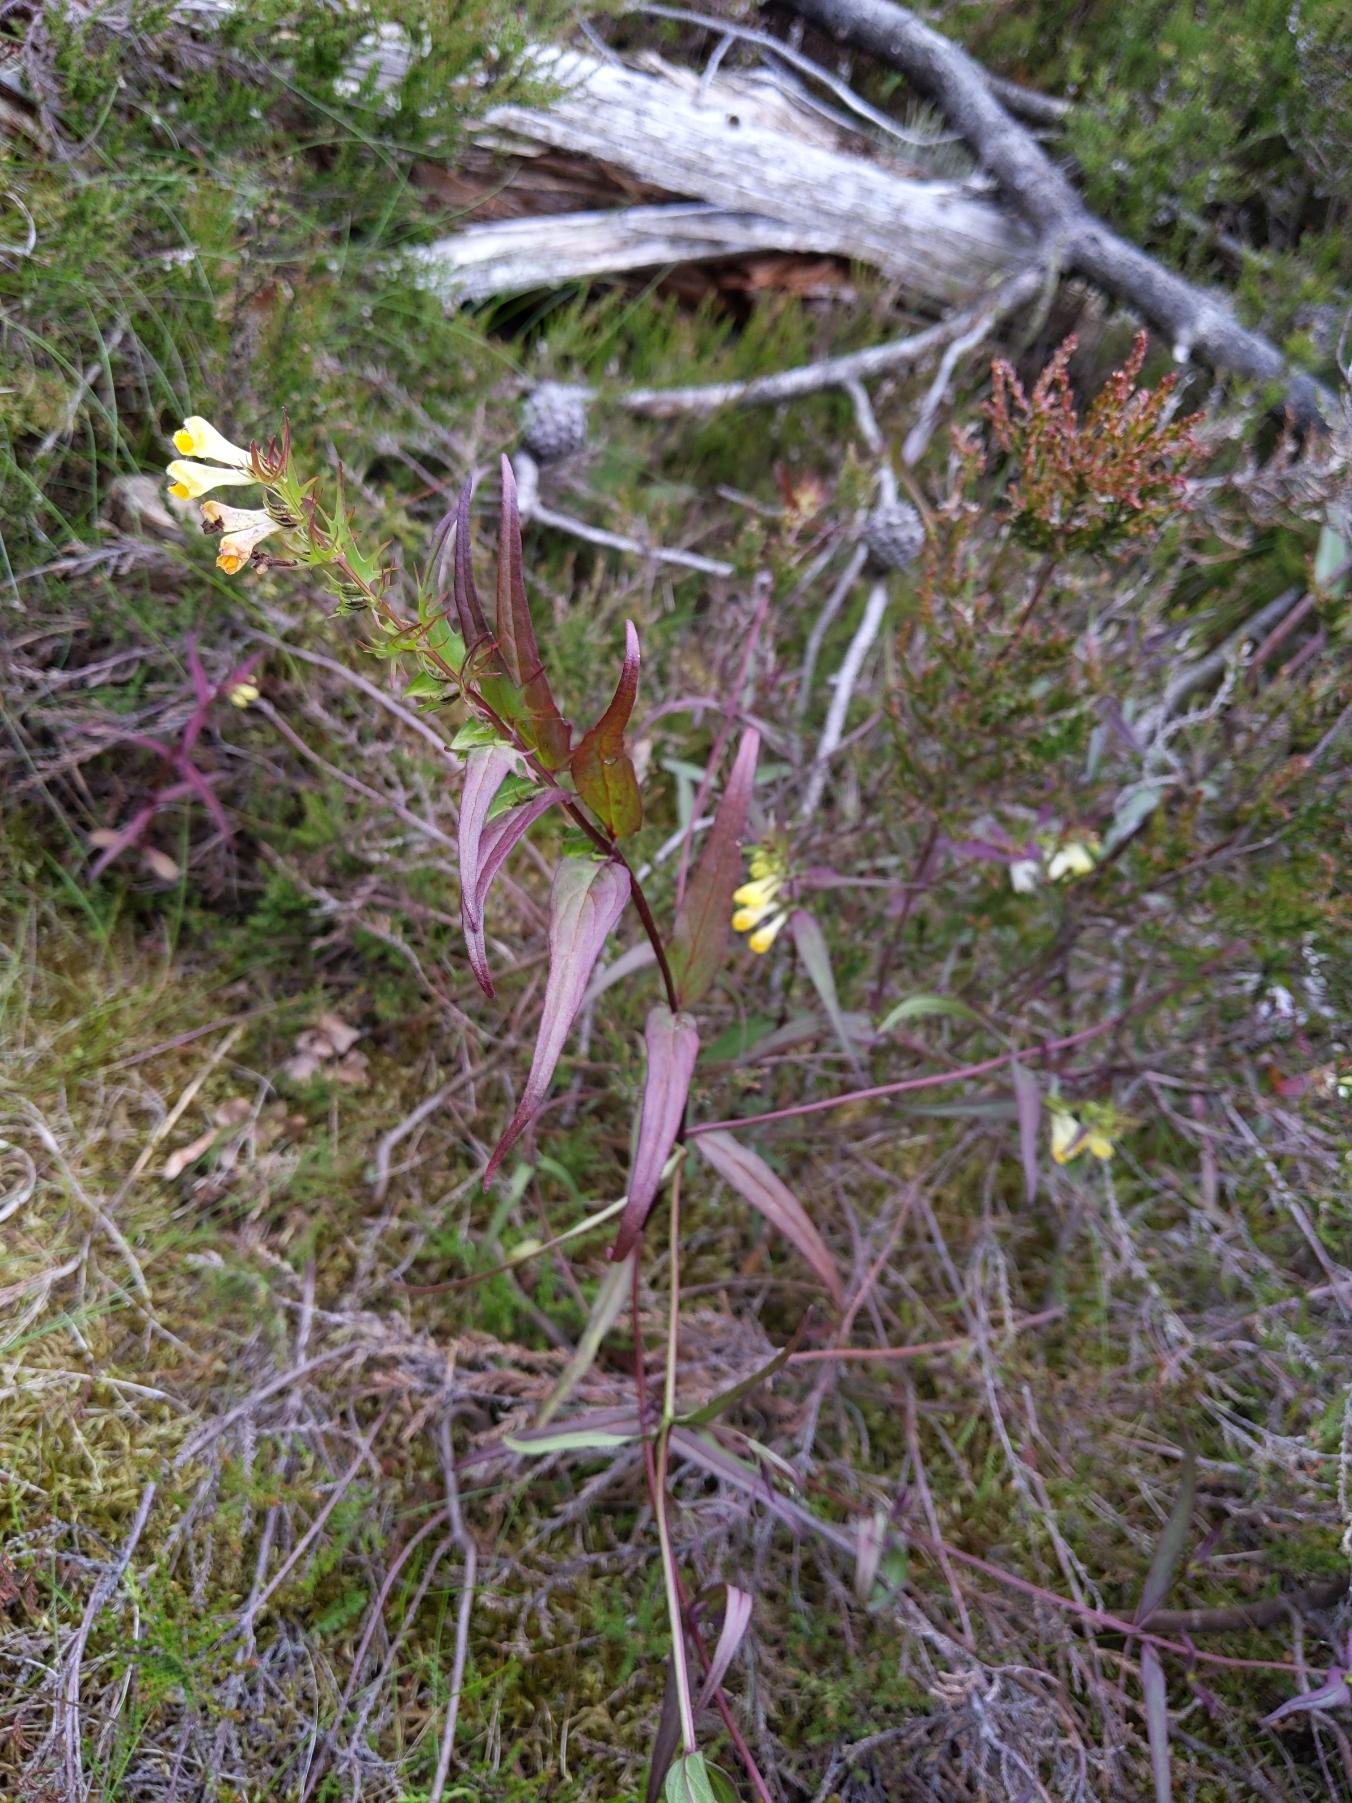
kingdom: Plantae
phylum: Tracheophyta
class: Magnoliopsida
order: Lamiales
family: Orobanchaceae
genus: Melampyrum
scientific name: Melampyrum pratense
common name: Almindelig kohvede
